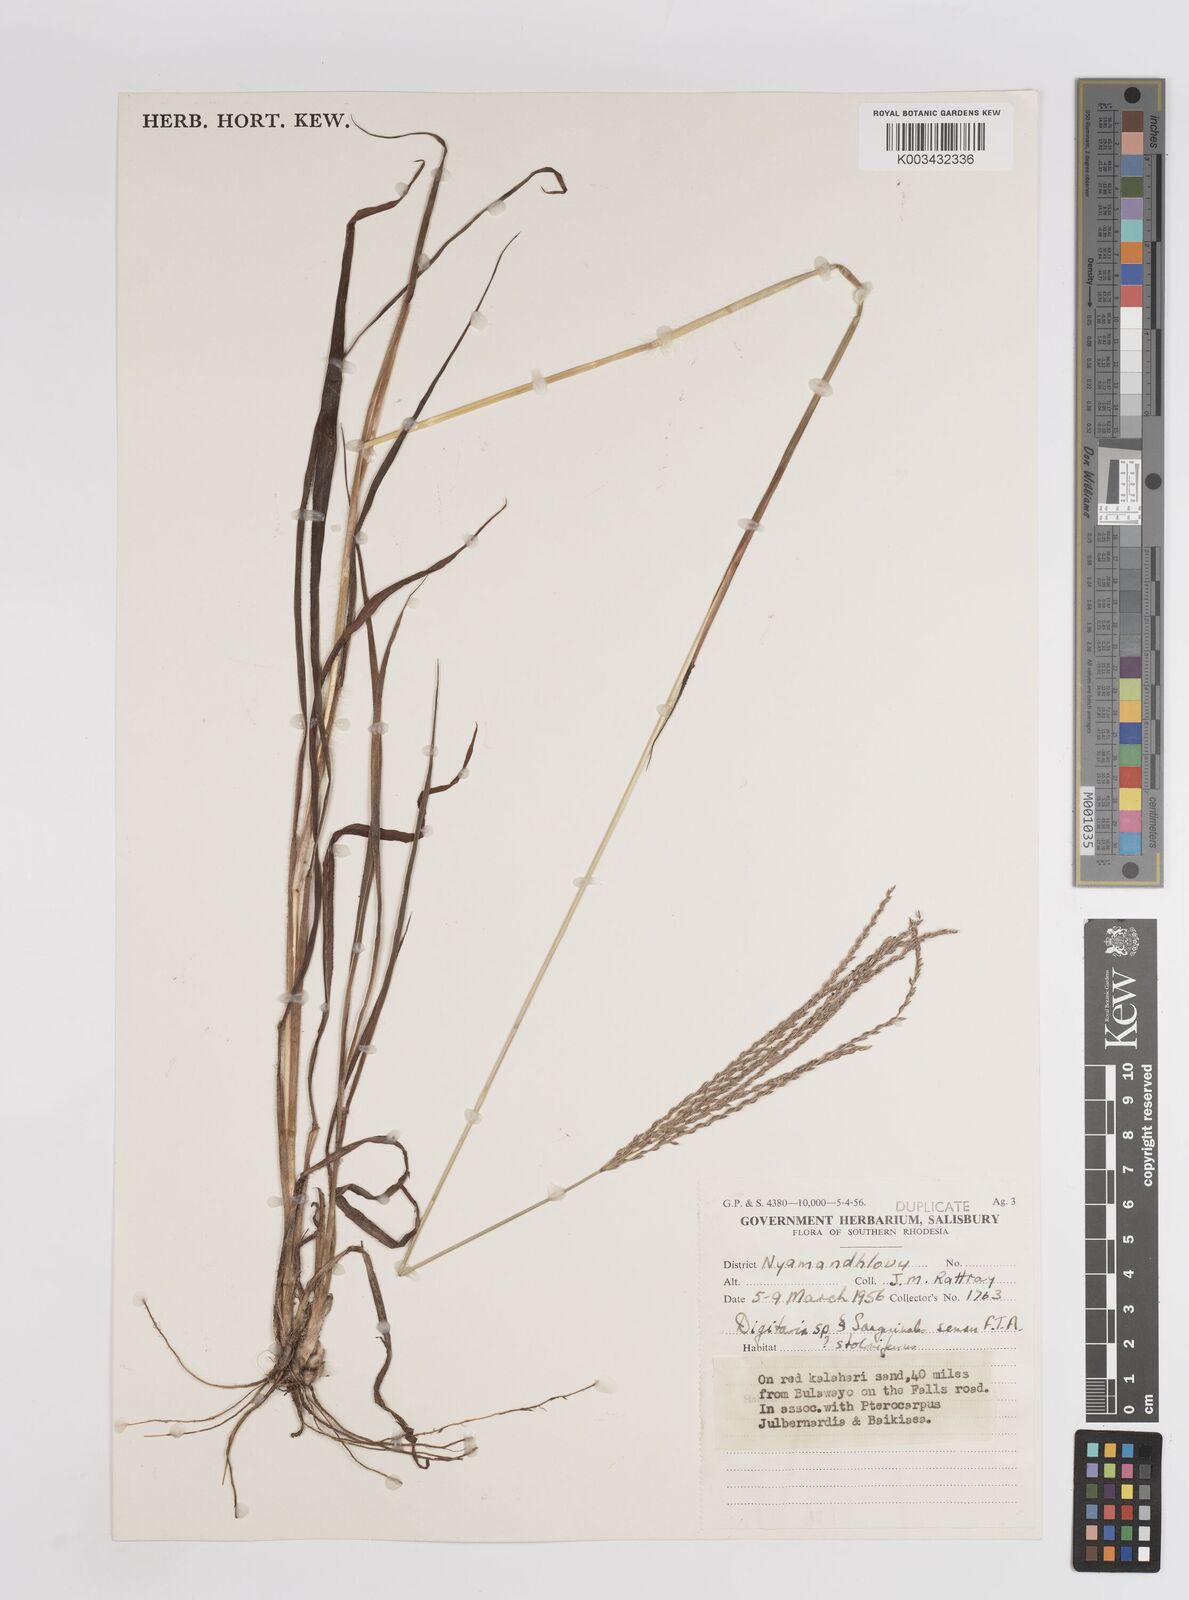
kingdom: Plantae
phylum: Tracheophyta
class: Liliopsida
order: Poales
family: Poaceae
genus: Digitaria
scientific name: Digitaria eriantha
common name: Digitgrass
